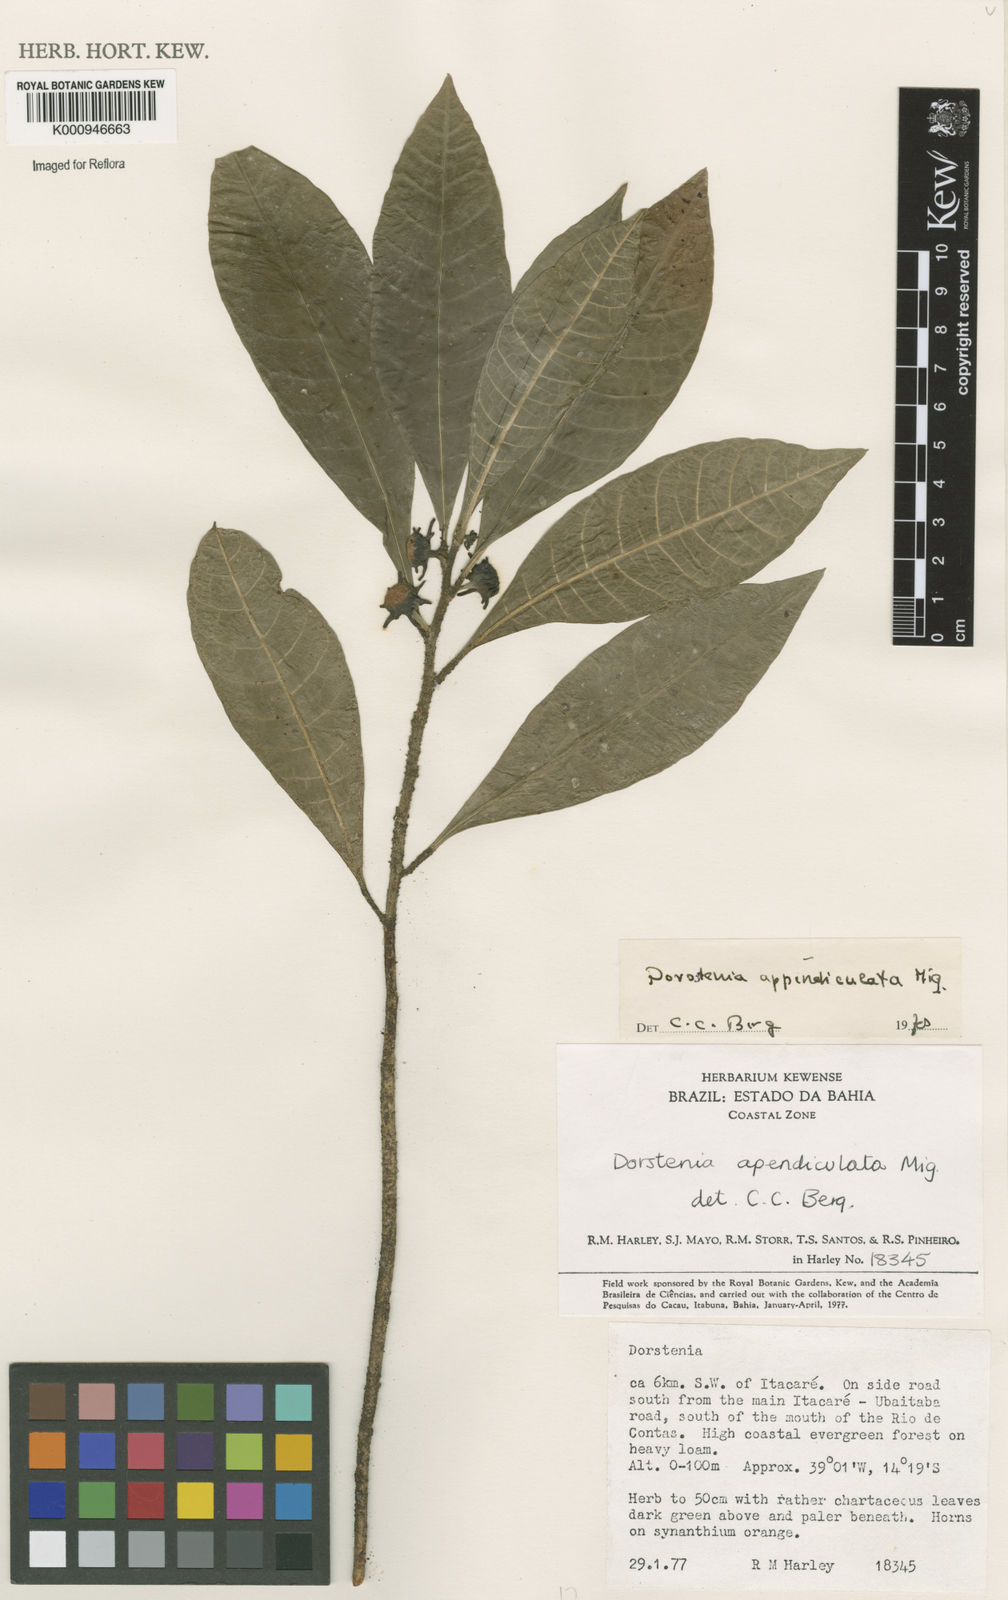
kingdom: Plantae
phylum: Tracheophyta
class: Magnoliopsida
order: Rosales
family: Moraceae
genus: Dorstenia
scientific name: Dorstenia appendiculata
